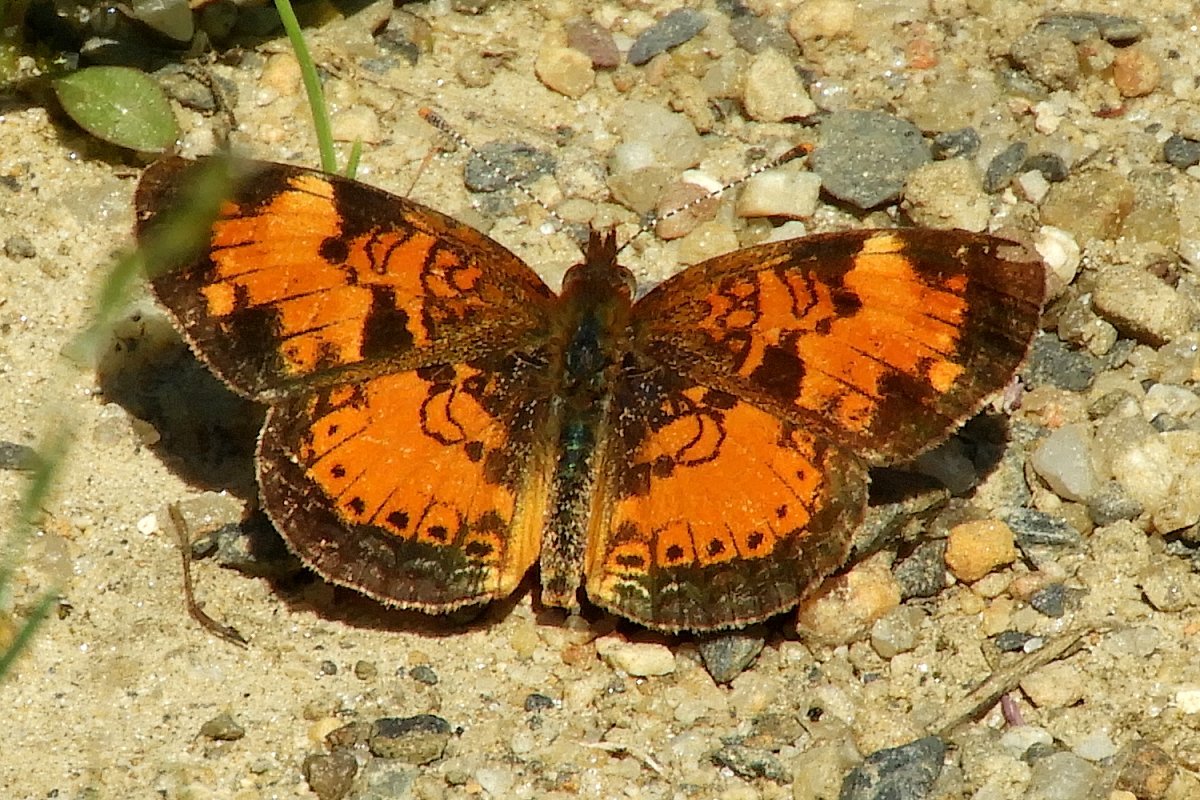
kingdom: Animalia
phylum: Arthropoda
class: Insecta
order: Lepidoptera
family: Nymphalidae
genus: Phyciodes
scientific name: Phyciodes tharos
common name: Northern Crescent
